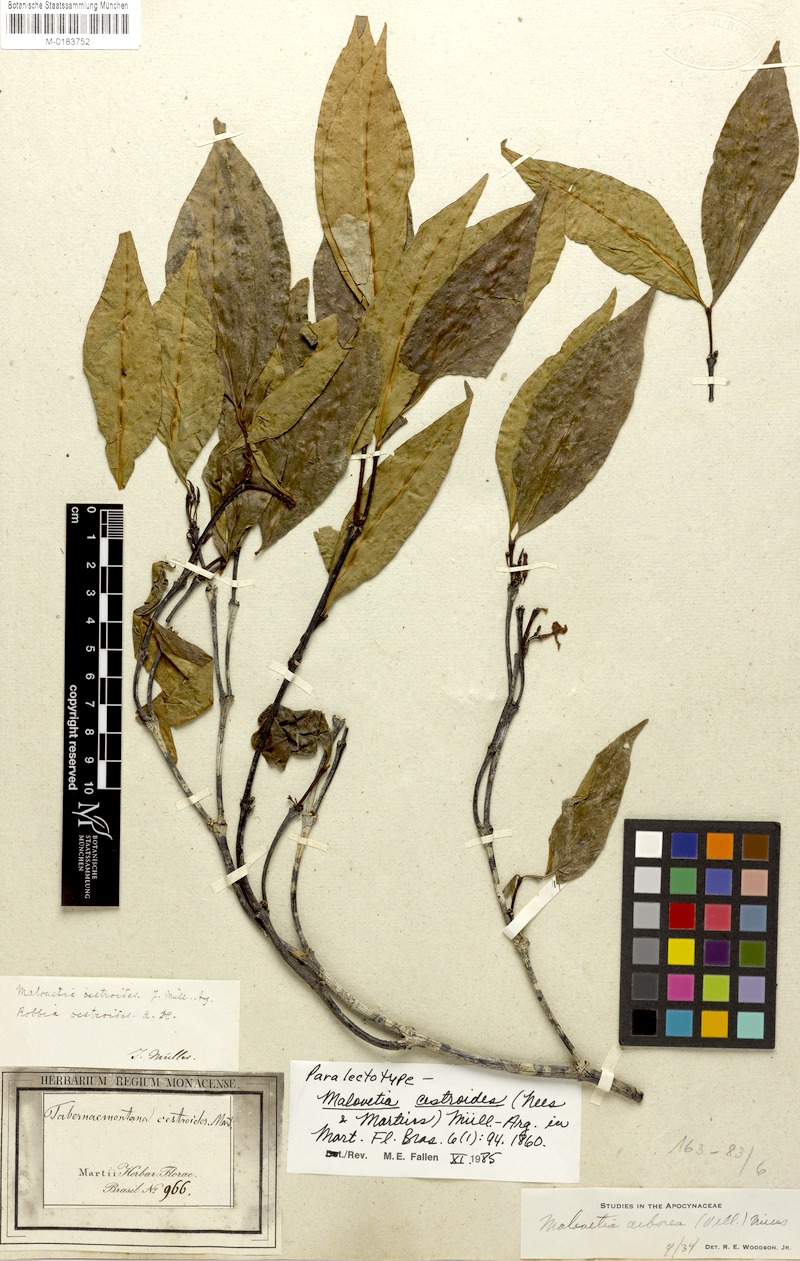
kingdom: Plantae
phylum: Tracheophyta
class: Magnoliopsida
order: Gentianales
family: Apocynaceae
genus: Malouetia
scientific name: Malouetia cestroides
